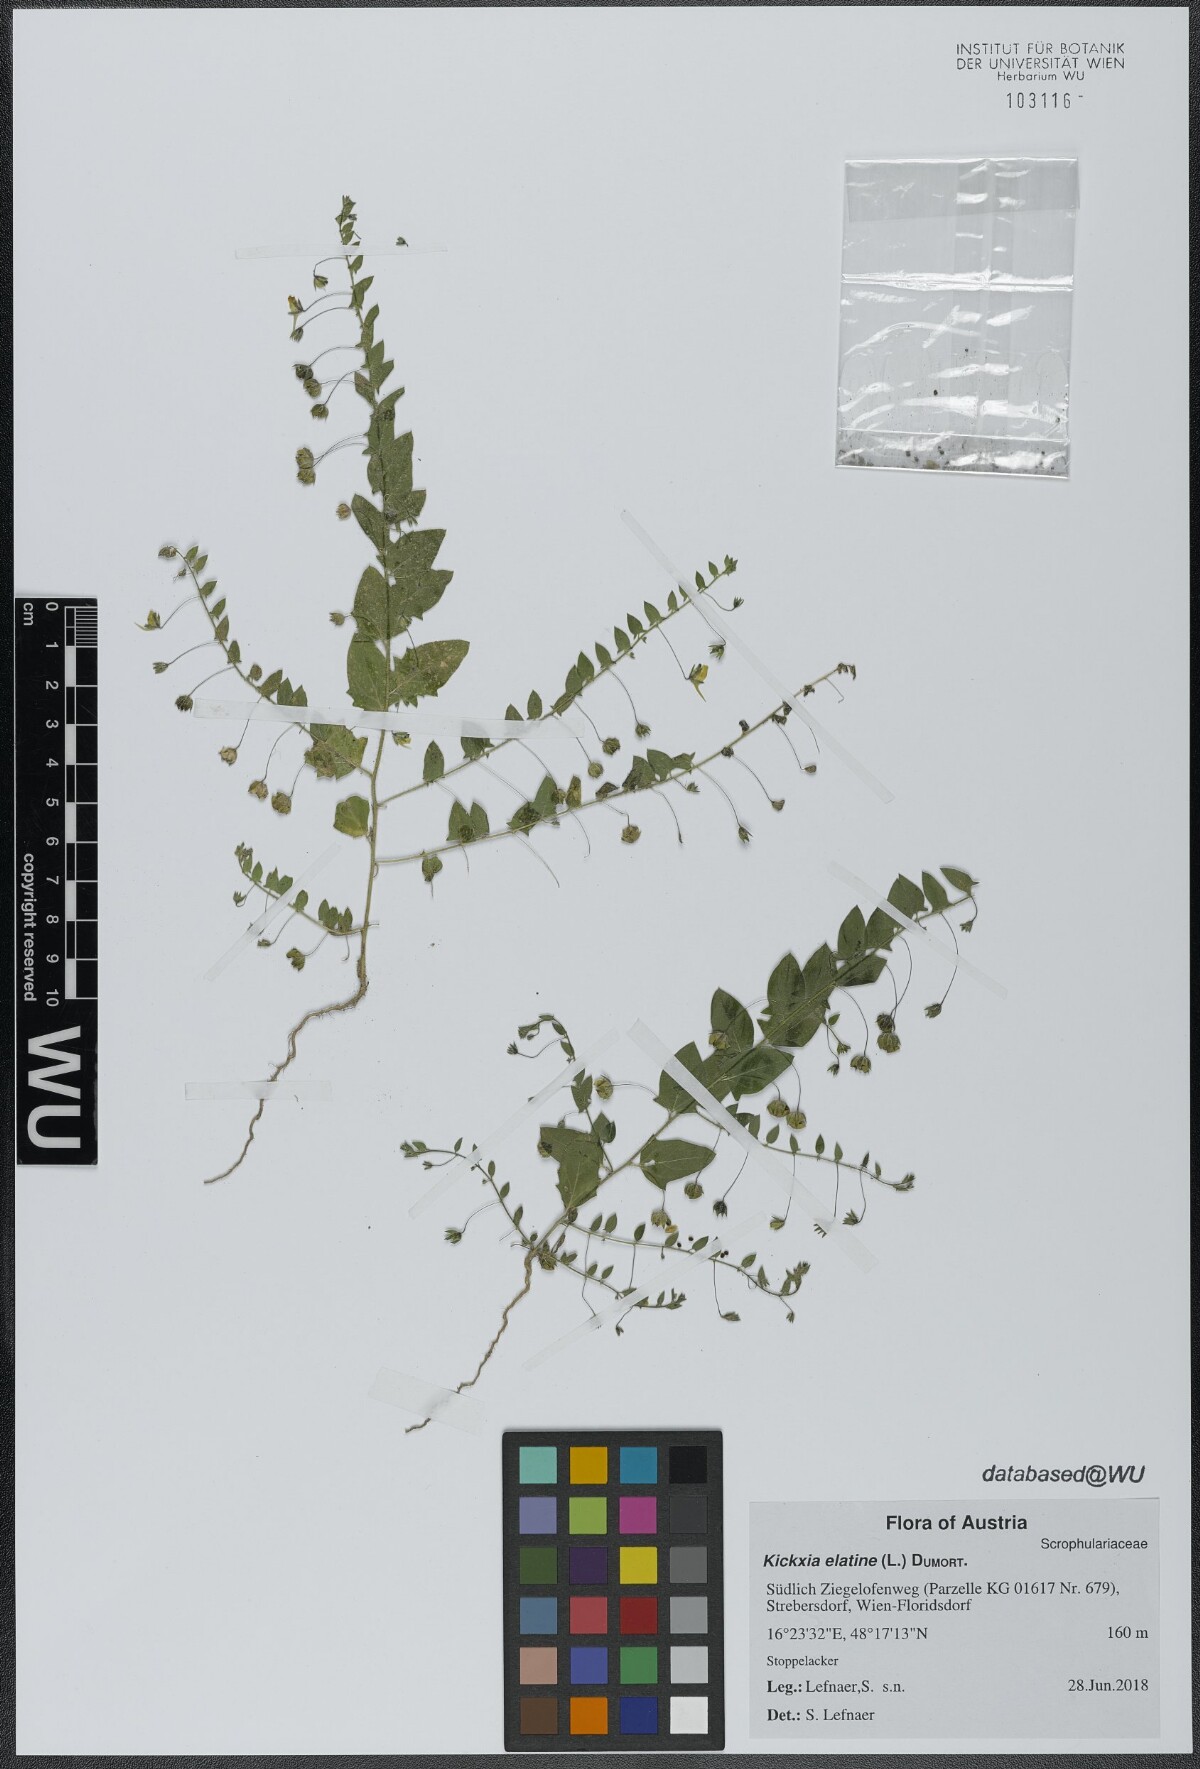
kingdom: Plantae
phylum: Tracheophyta
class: Magnoliopsida
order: Lamiales
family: Plantaginaceae
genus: Kickxia
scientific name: Kickxia elatine
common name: Sharp-leaved fluellen
